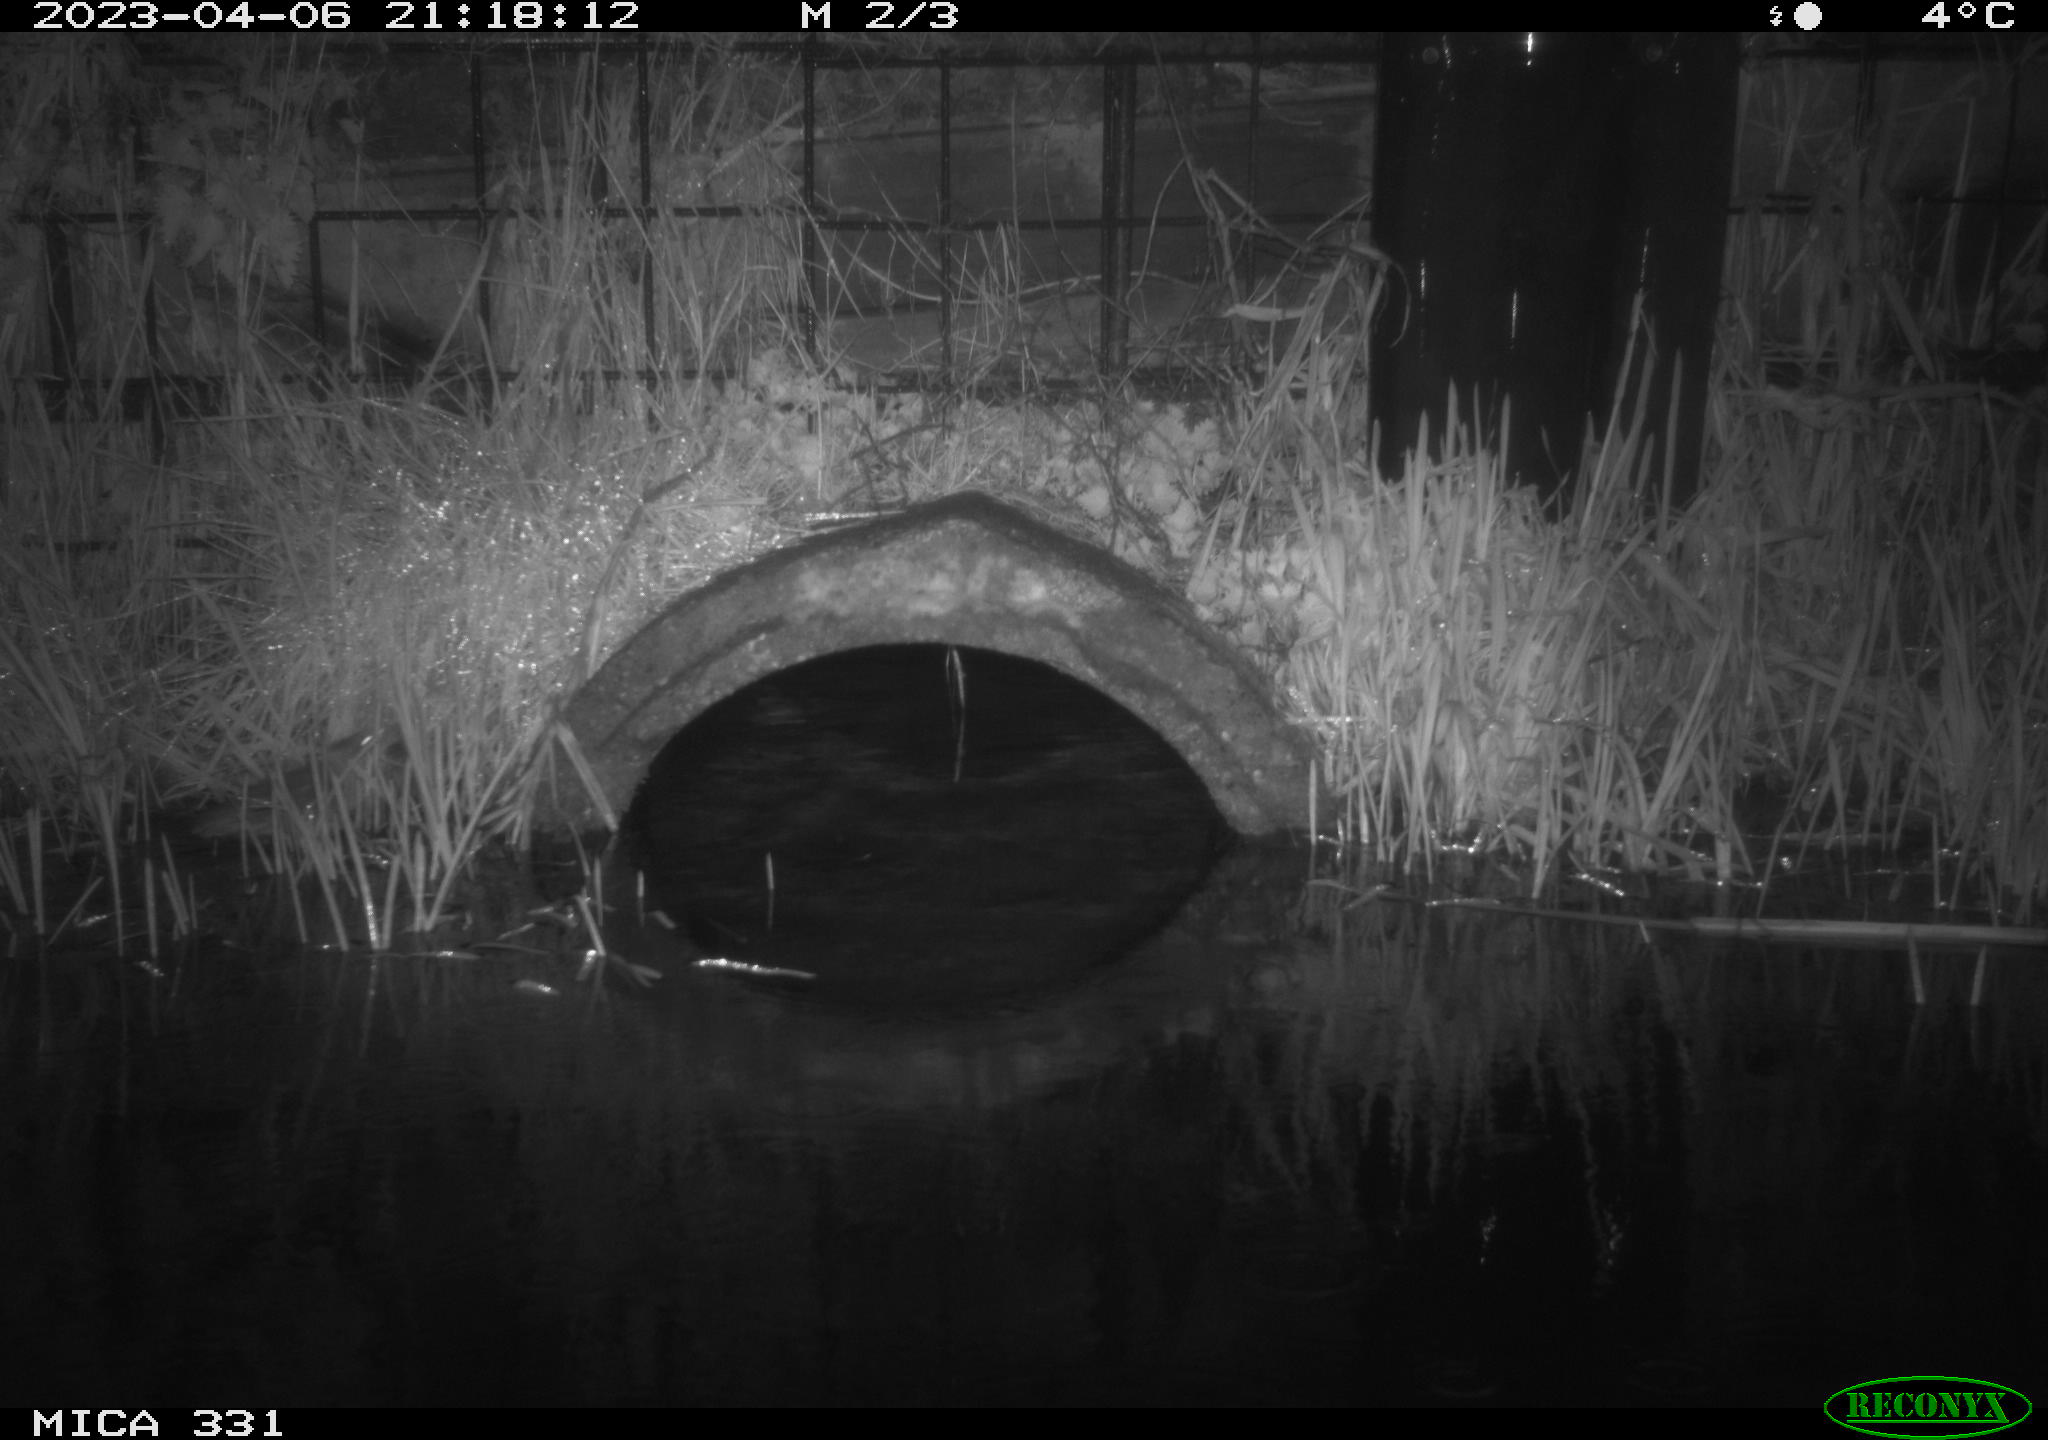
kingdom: Animalia
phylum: Chordata
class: Mammalia
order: Rodentia
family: Muridae
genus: Rattus
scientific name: Rattus norvegicus
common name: Brown rat
